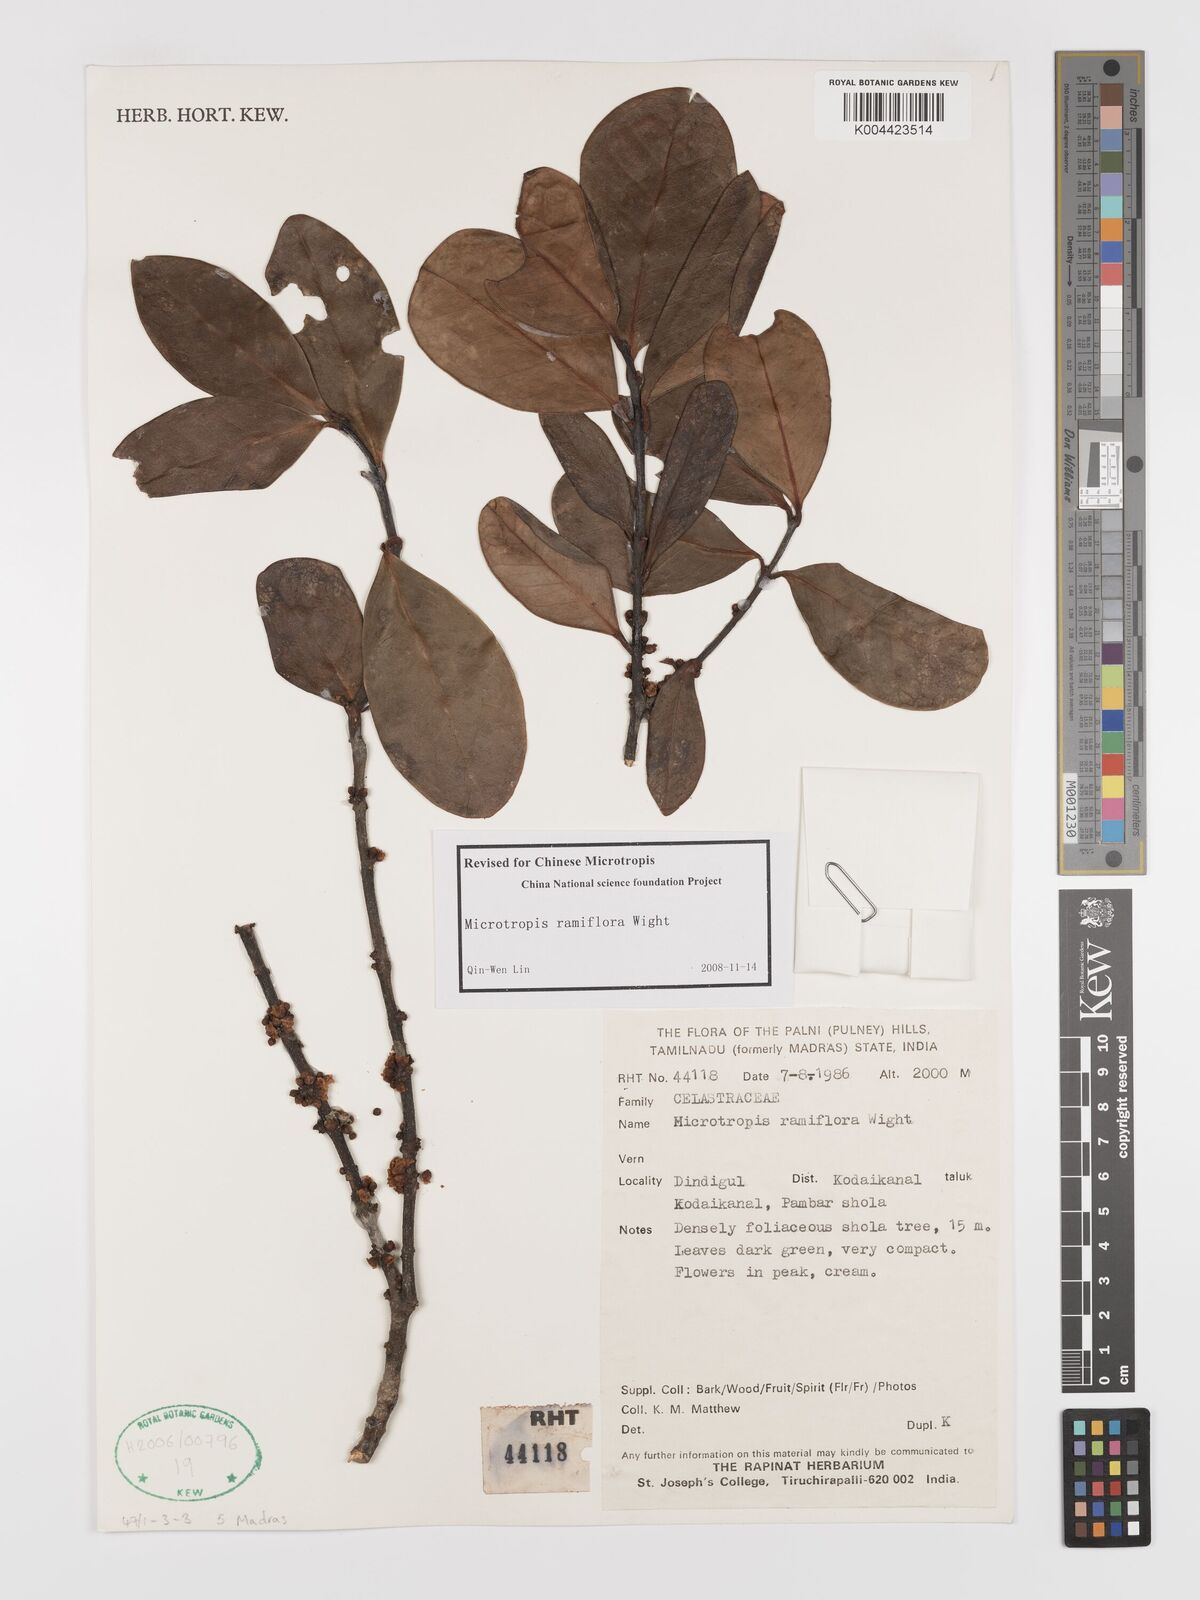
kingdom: Plantae
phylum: Tracheophyta
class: Magnoliopsida
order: Celastrales
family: Celastraceae
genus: Microtropis
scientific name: Microtropis ramiflora
